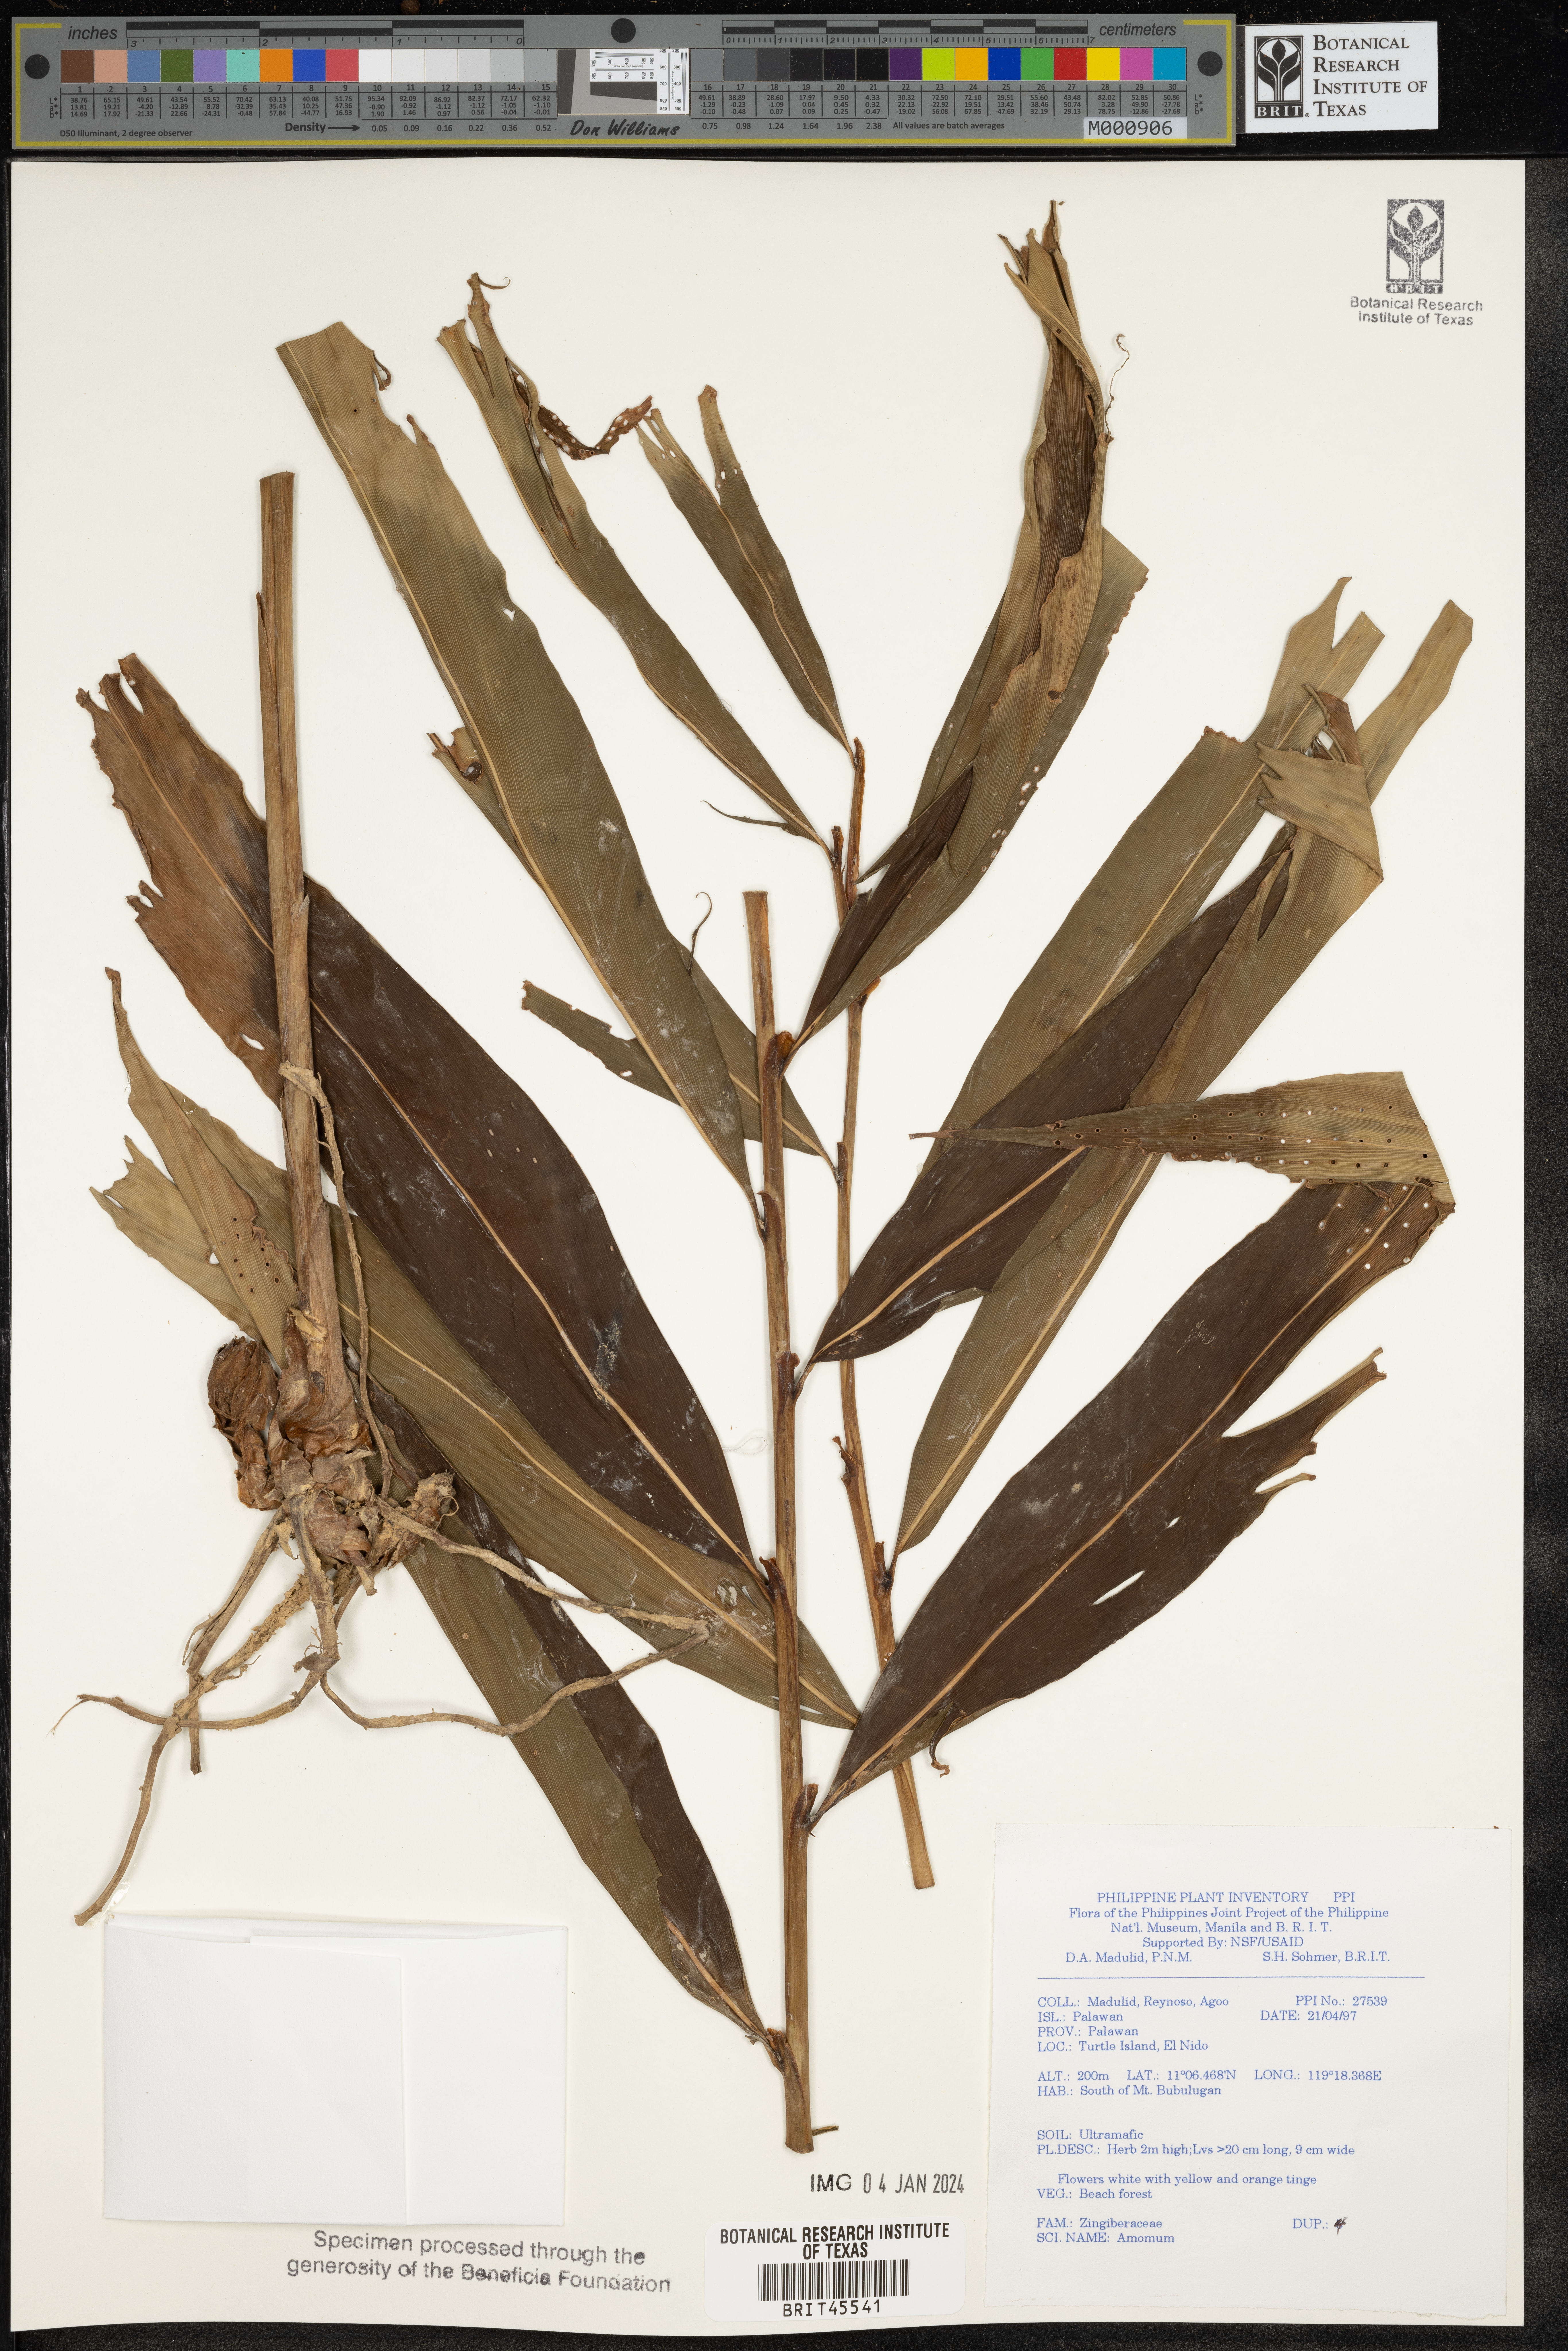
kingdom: Plantae
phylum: Tracheophyta
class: Liliopsida
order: Zingiberales
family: Zingiberaceae
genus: Amomum
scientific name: Amomum
